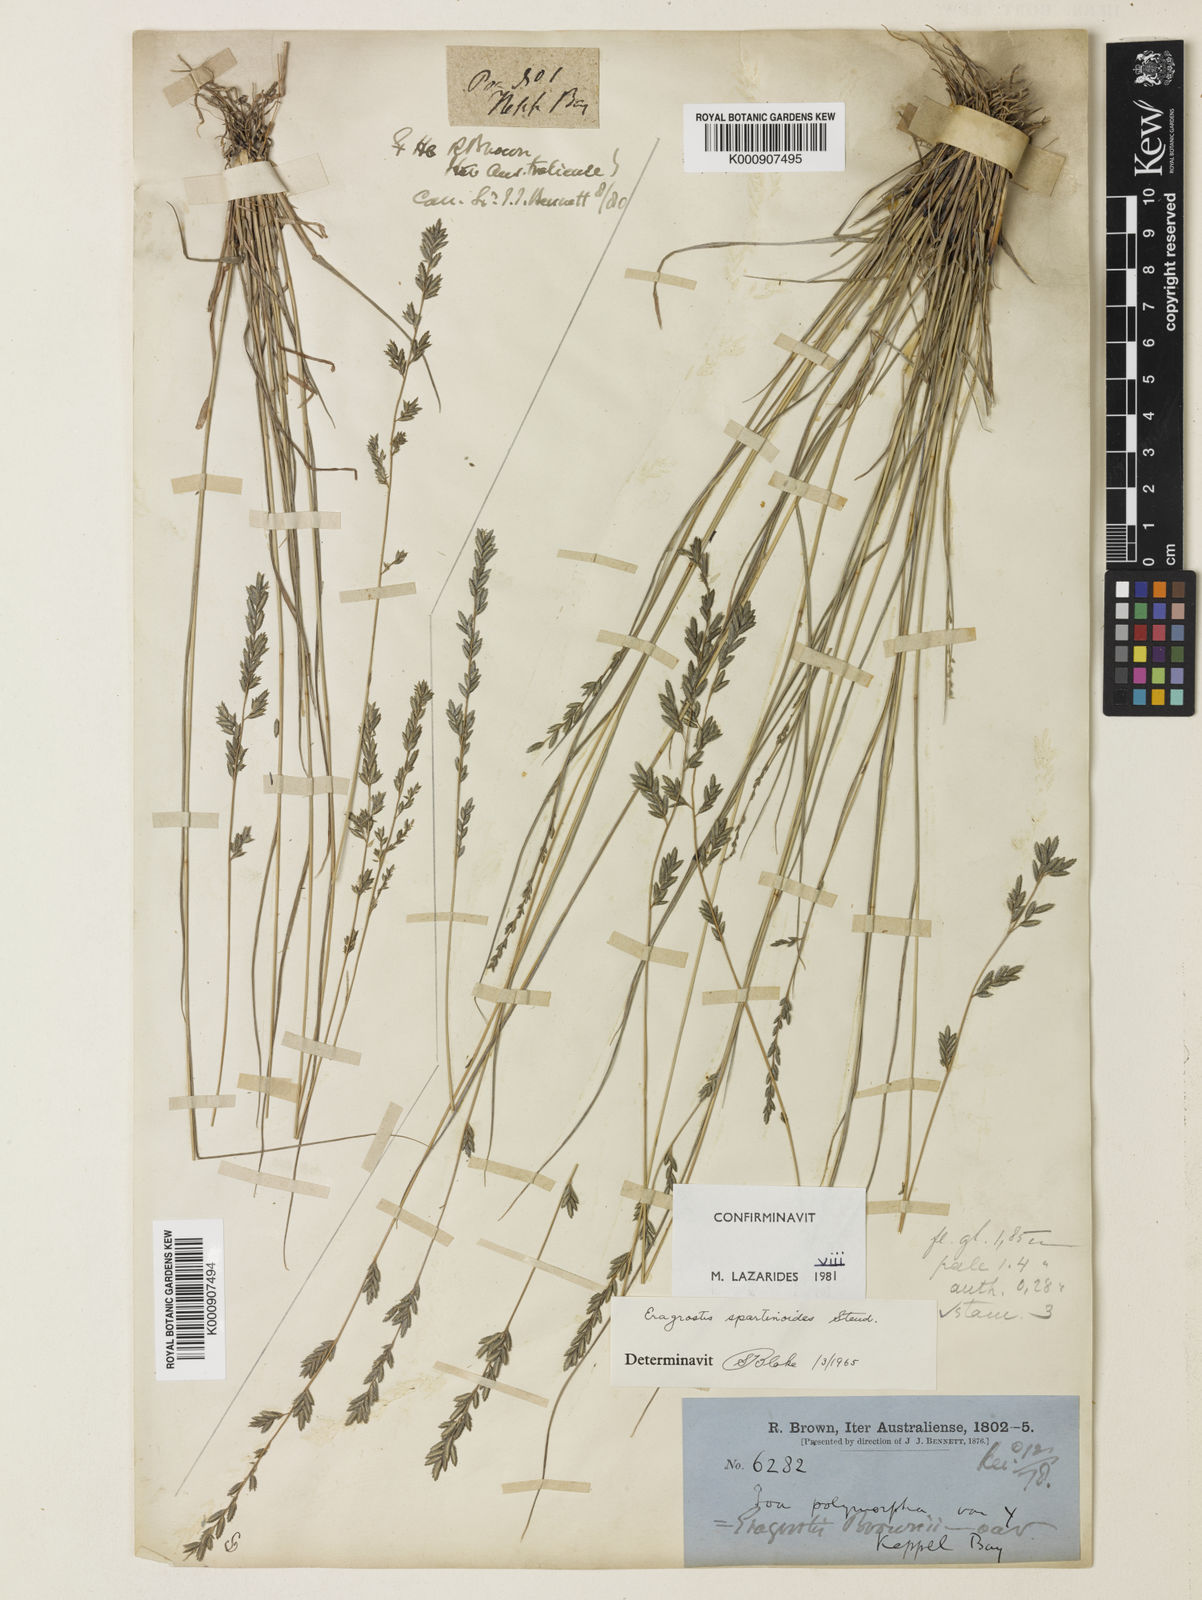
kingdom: Plantae
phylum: Tracheophyta
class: Liliopsida
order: Poales
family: Poaceae
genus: Eragrostis
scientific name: Eragrostis brownii
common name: Lovegrass
